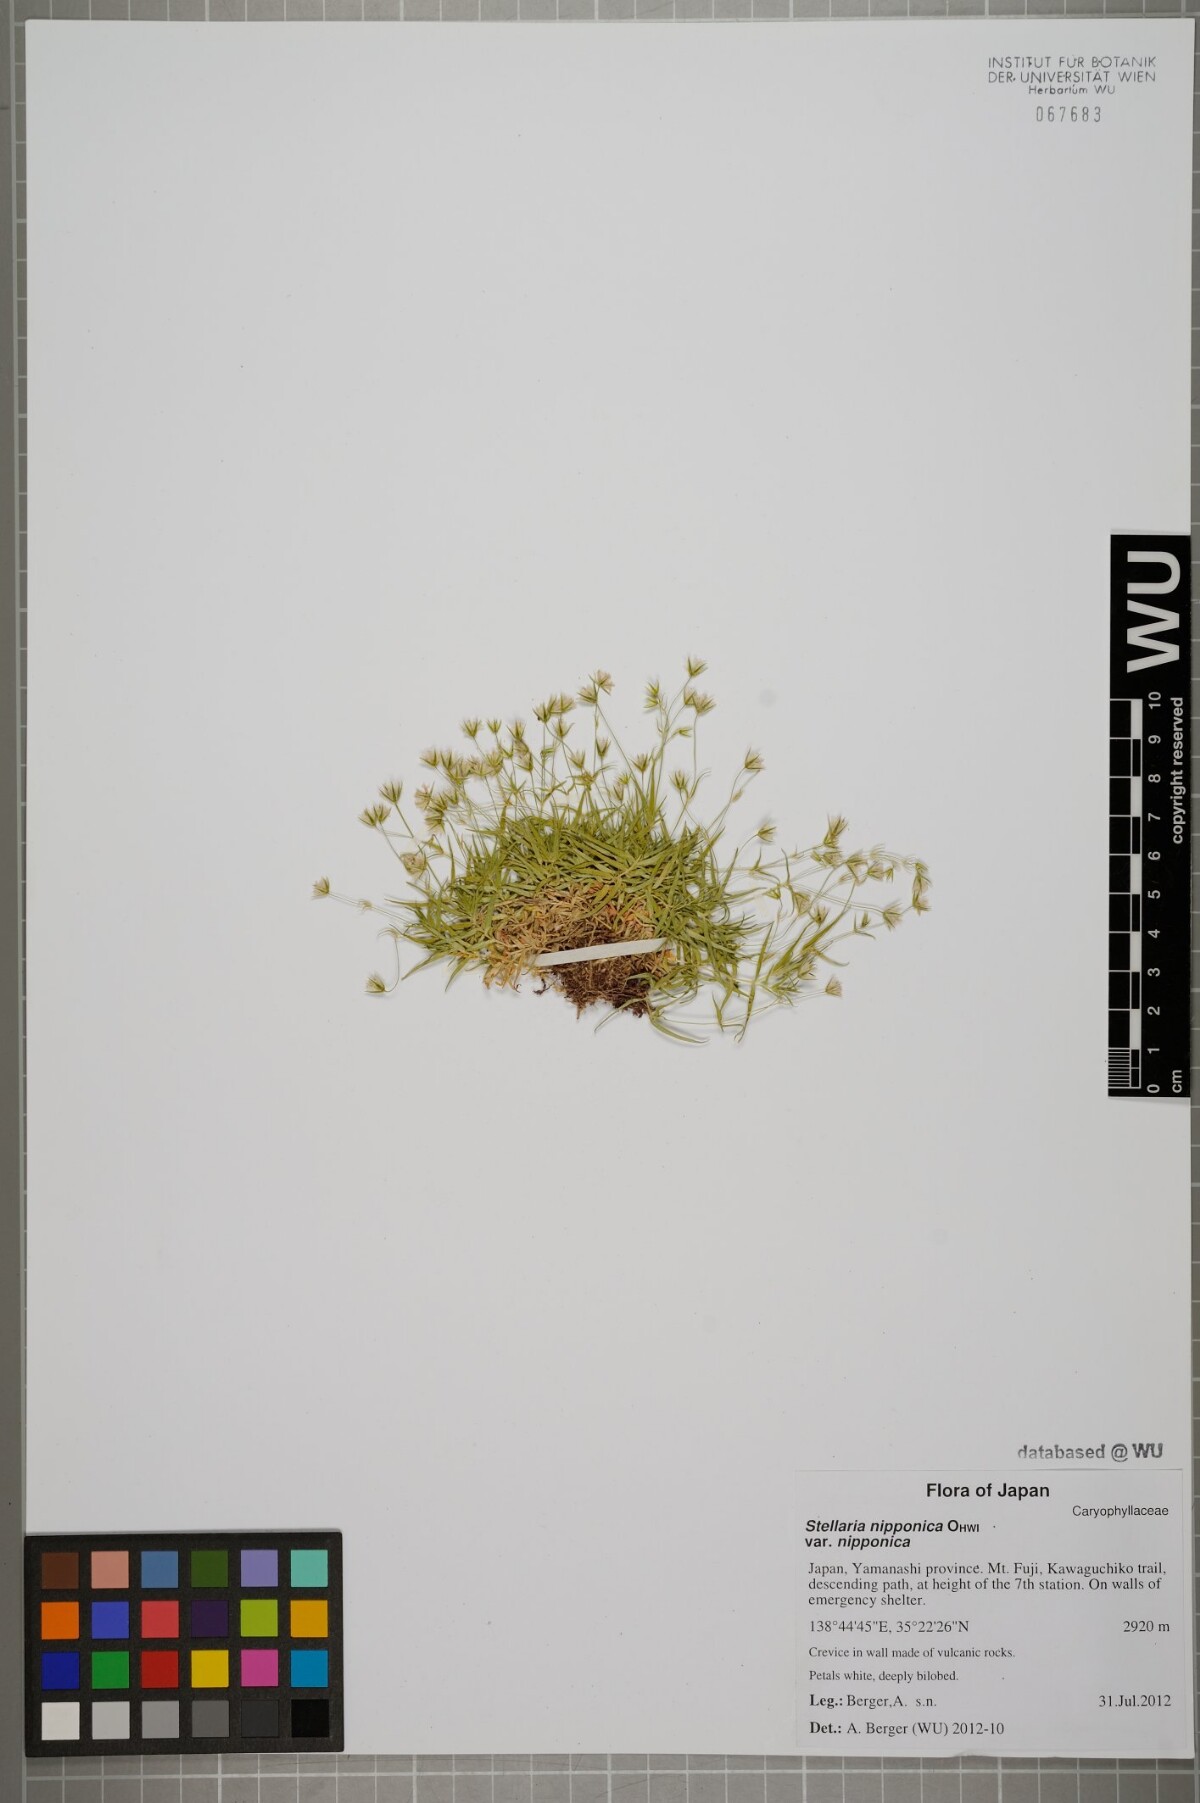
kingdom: Plantae
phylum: Tracheophyta
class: Magnoliopsida
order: Caryophyllales
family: Caryophyllaceae
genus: Stellaria
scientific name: Stellaria nipponica
